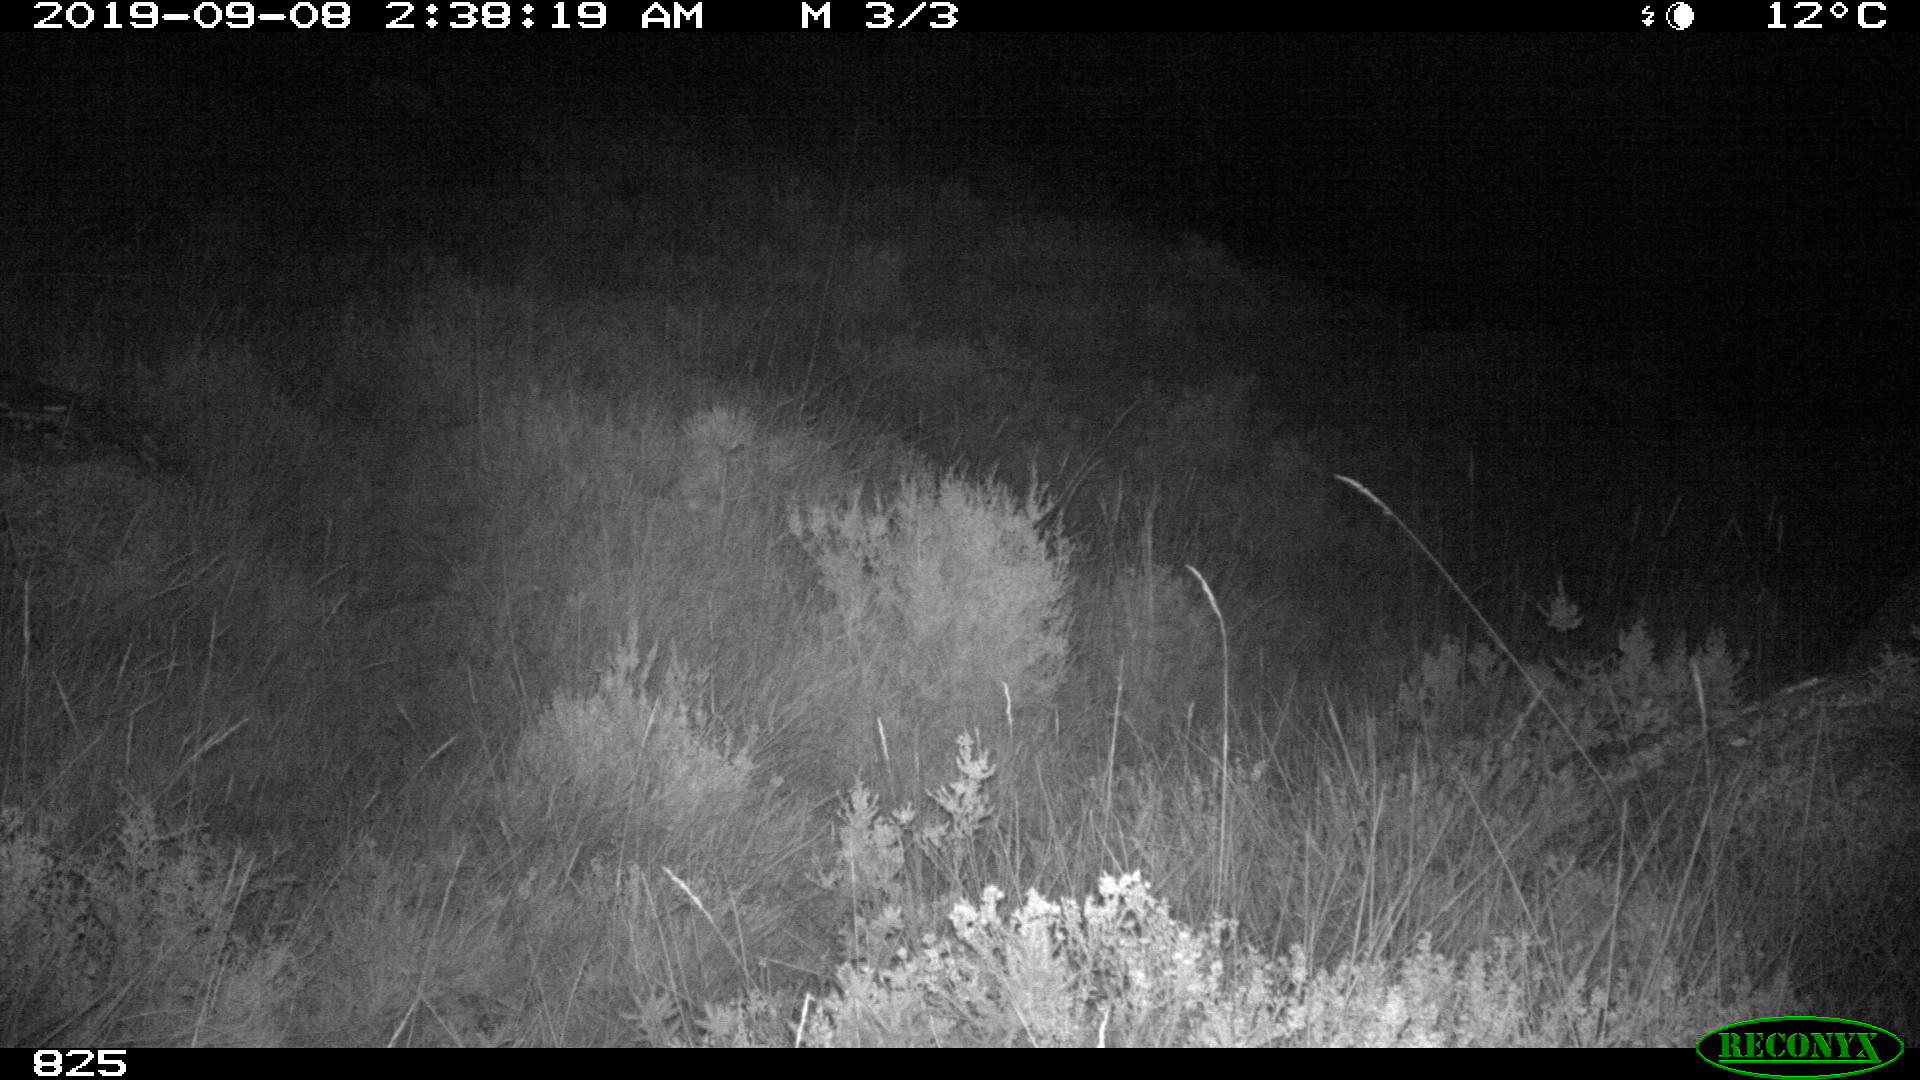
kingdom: Animalia
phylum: Chordata
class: Mammalia
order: Artiodactyla
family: Suidae
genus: Sus
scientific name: Sus scrofa
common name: Wild boar
